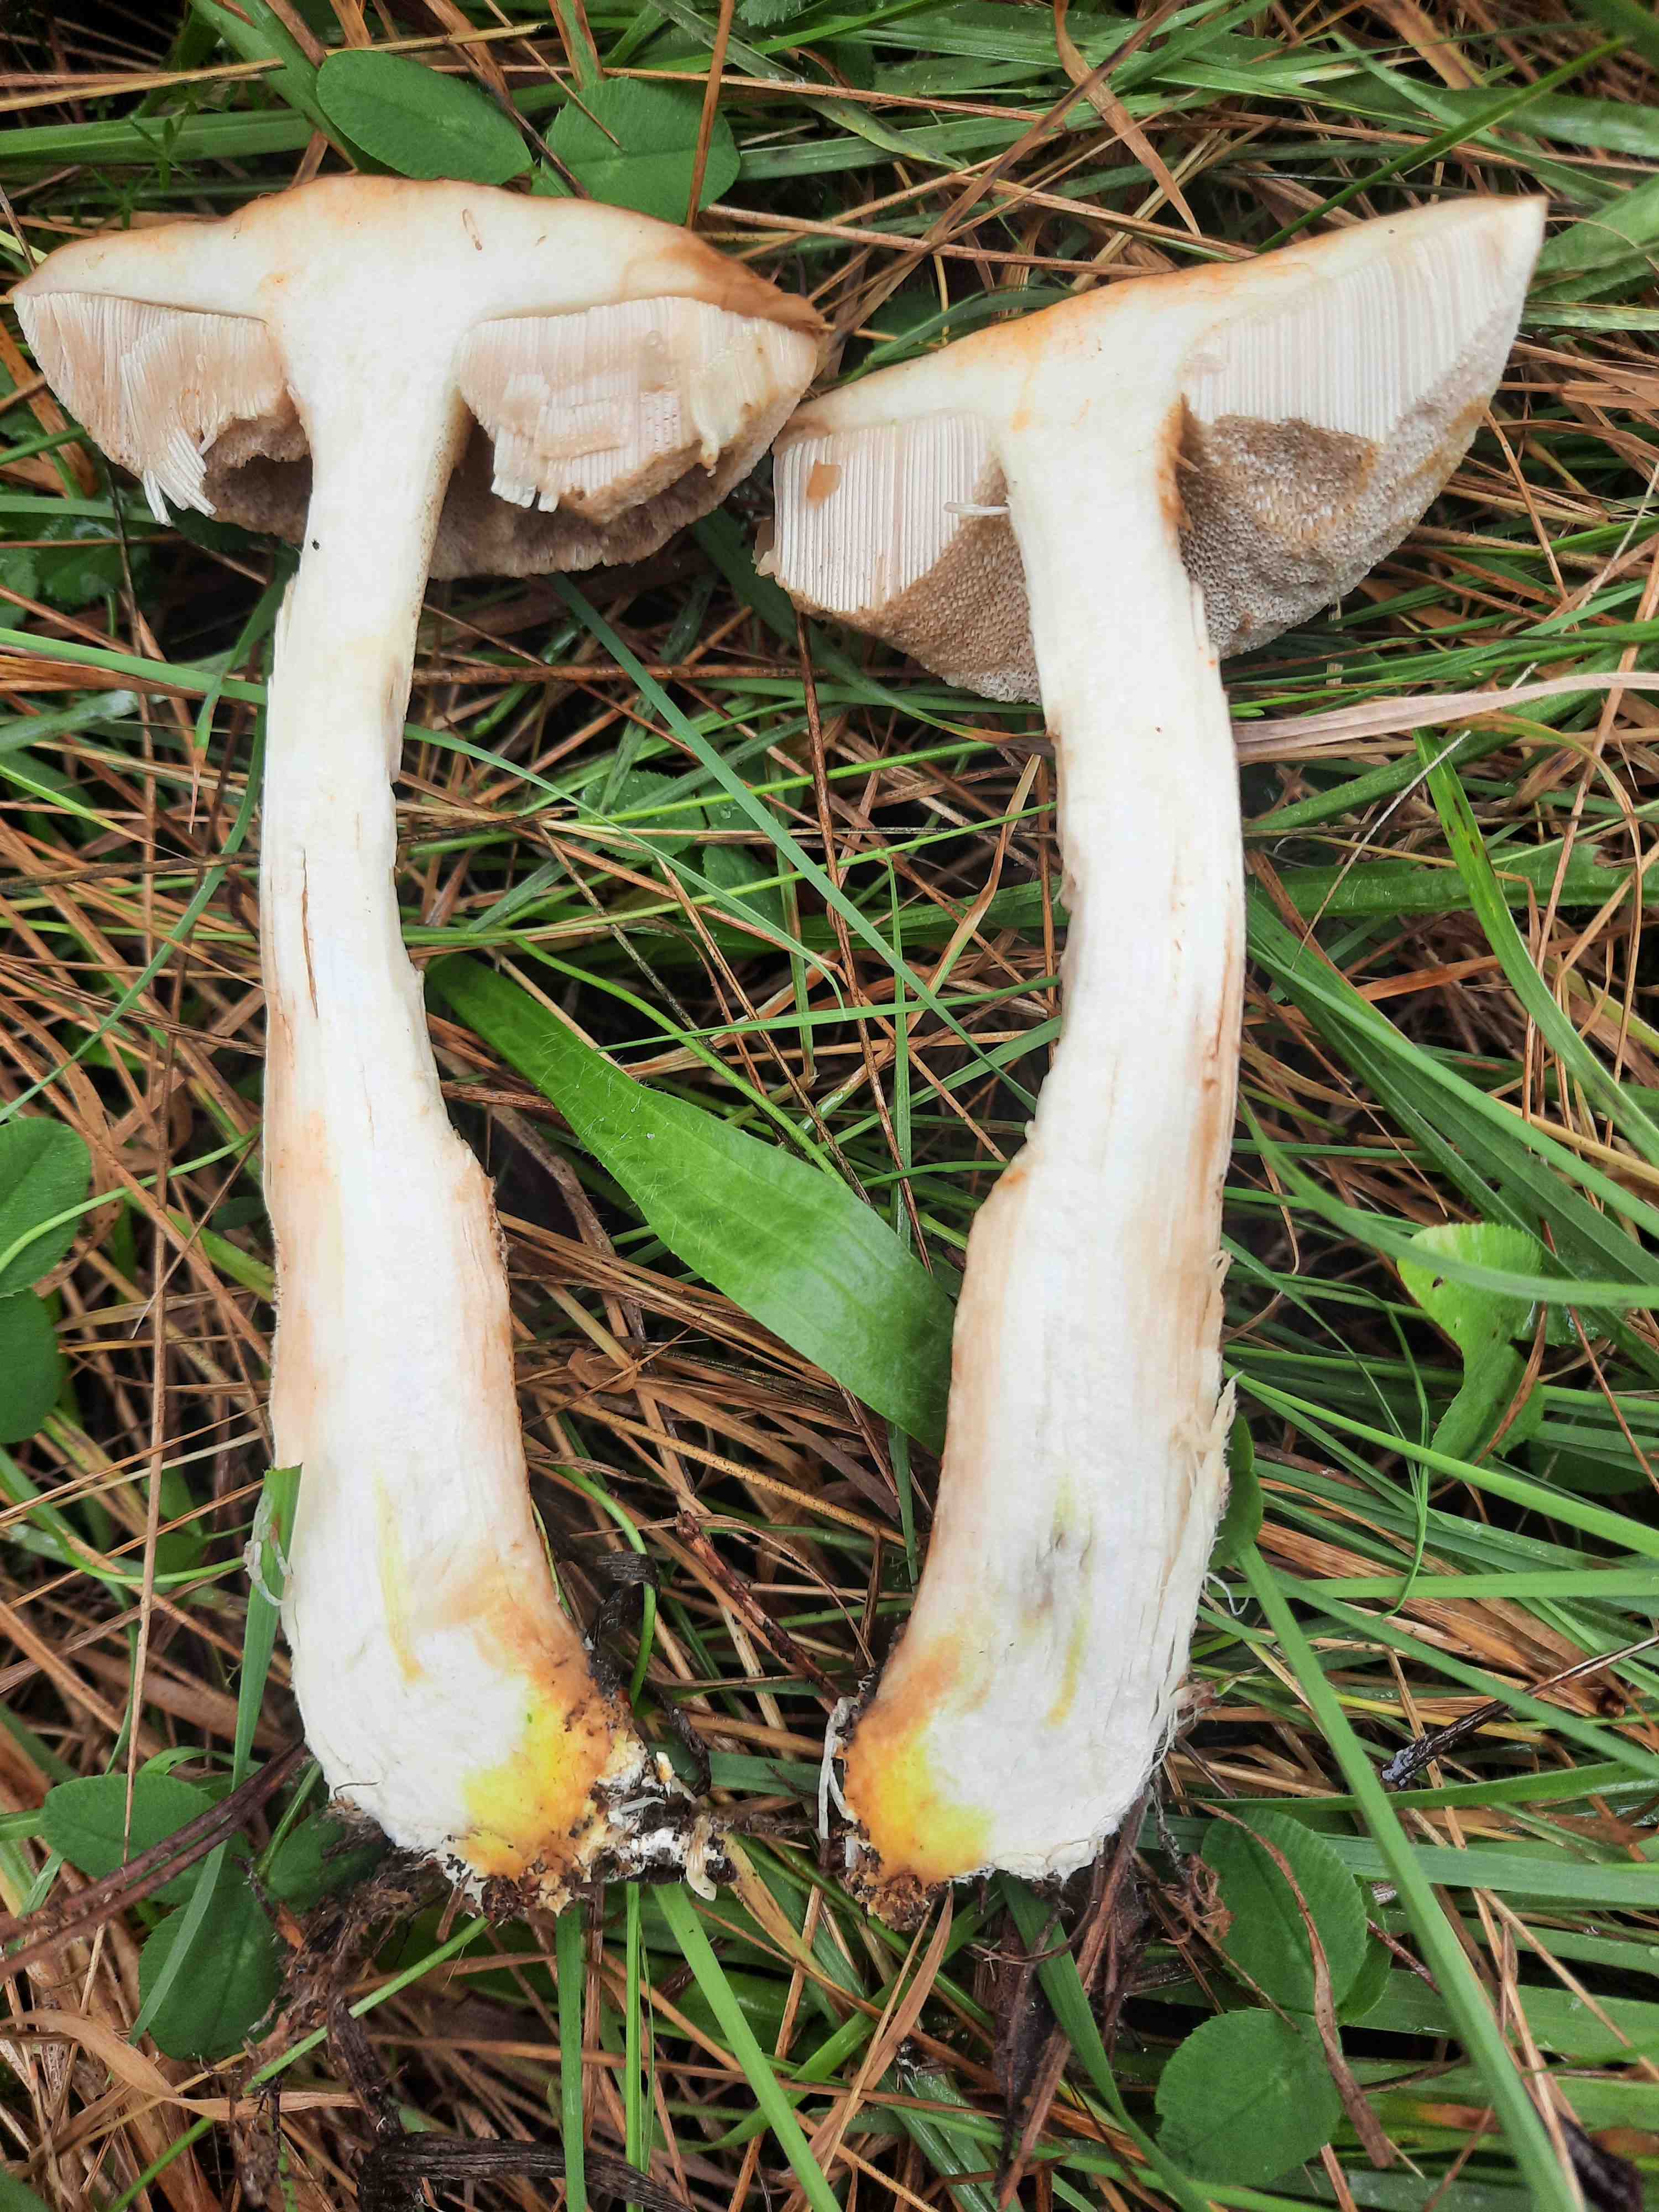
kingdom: Fungi
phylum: Basidiomycota
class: Agaricomycetes
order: Boletales
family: Boletaceae
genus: Leccinellum
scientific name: Leccinellum
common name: skælrørhat
